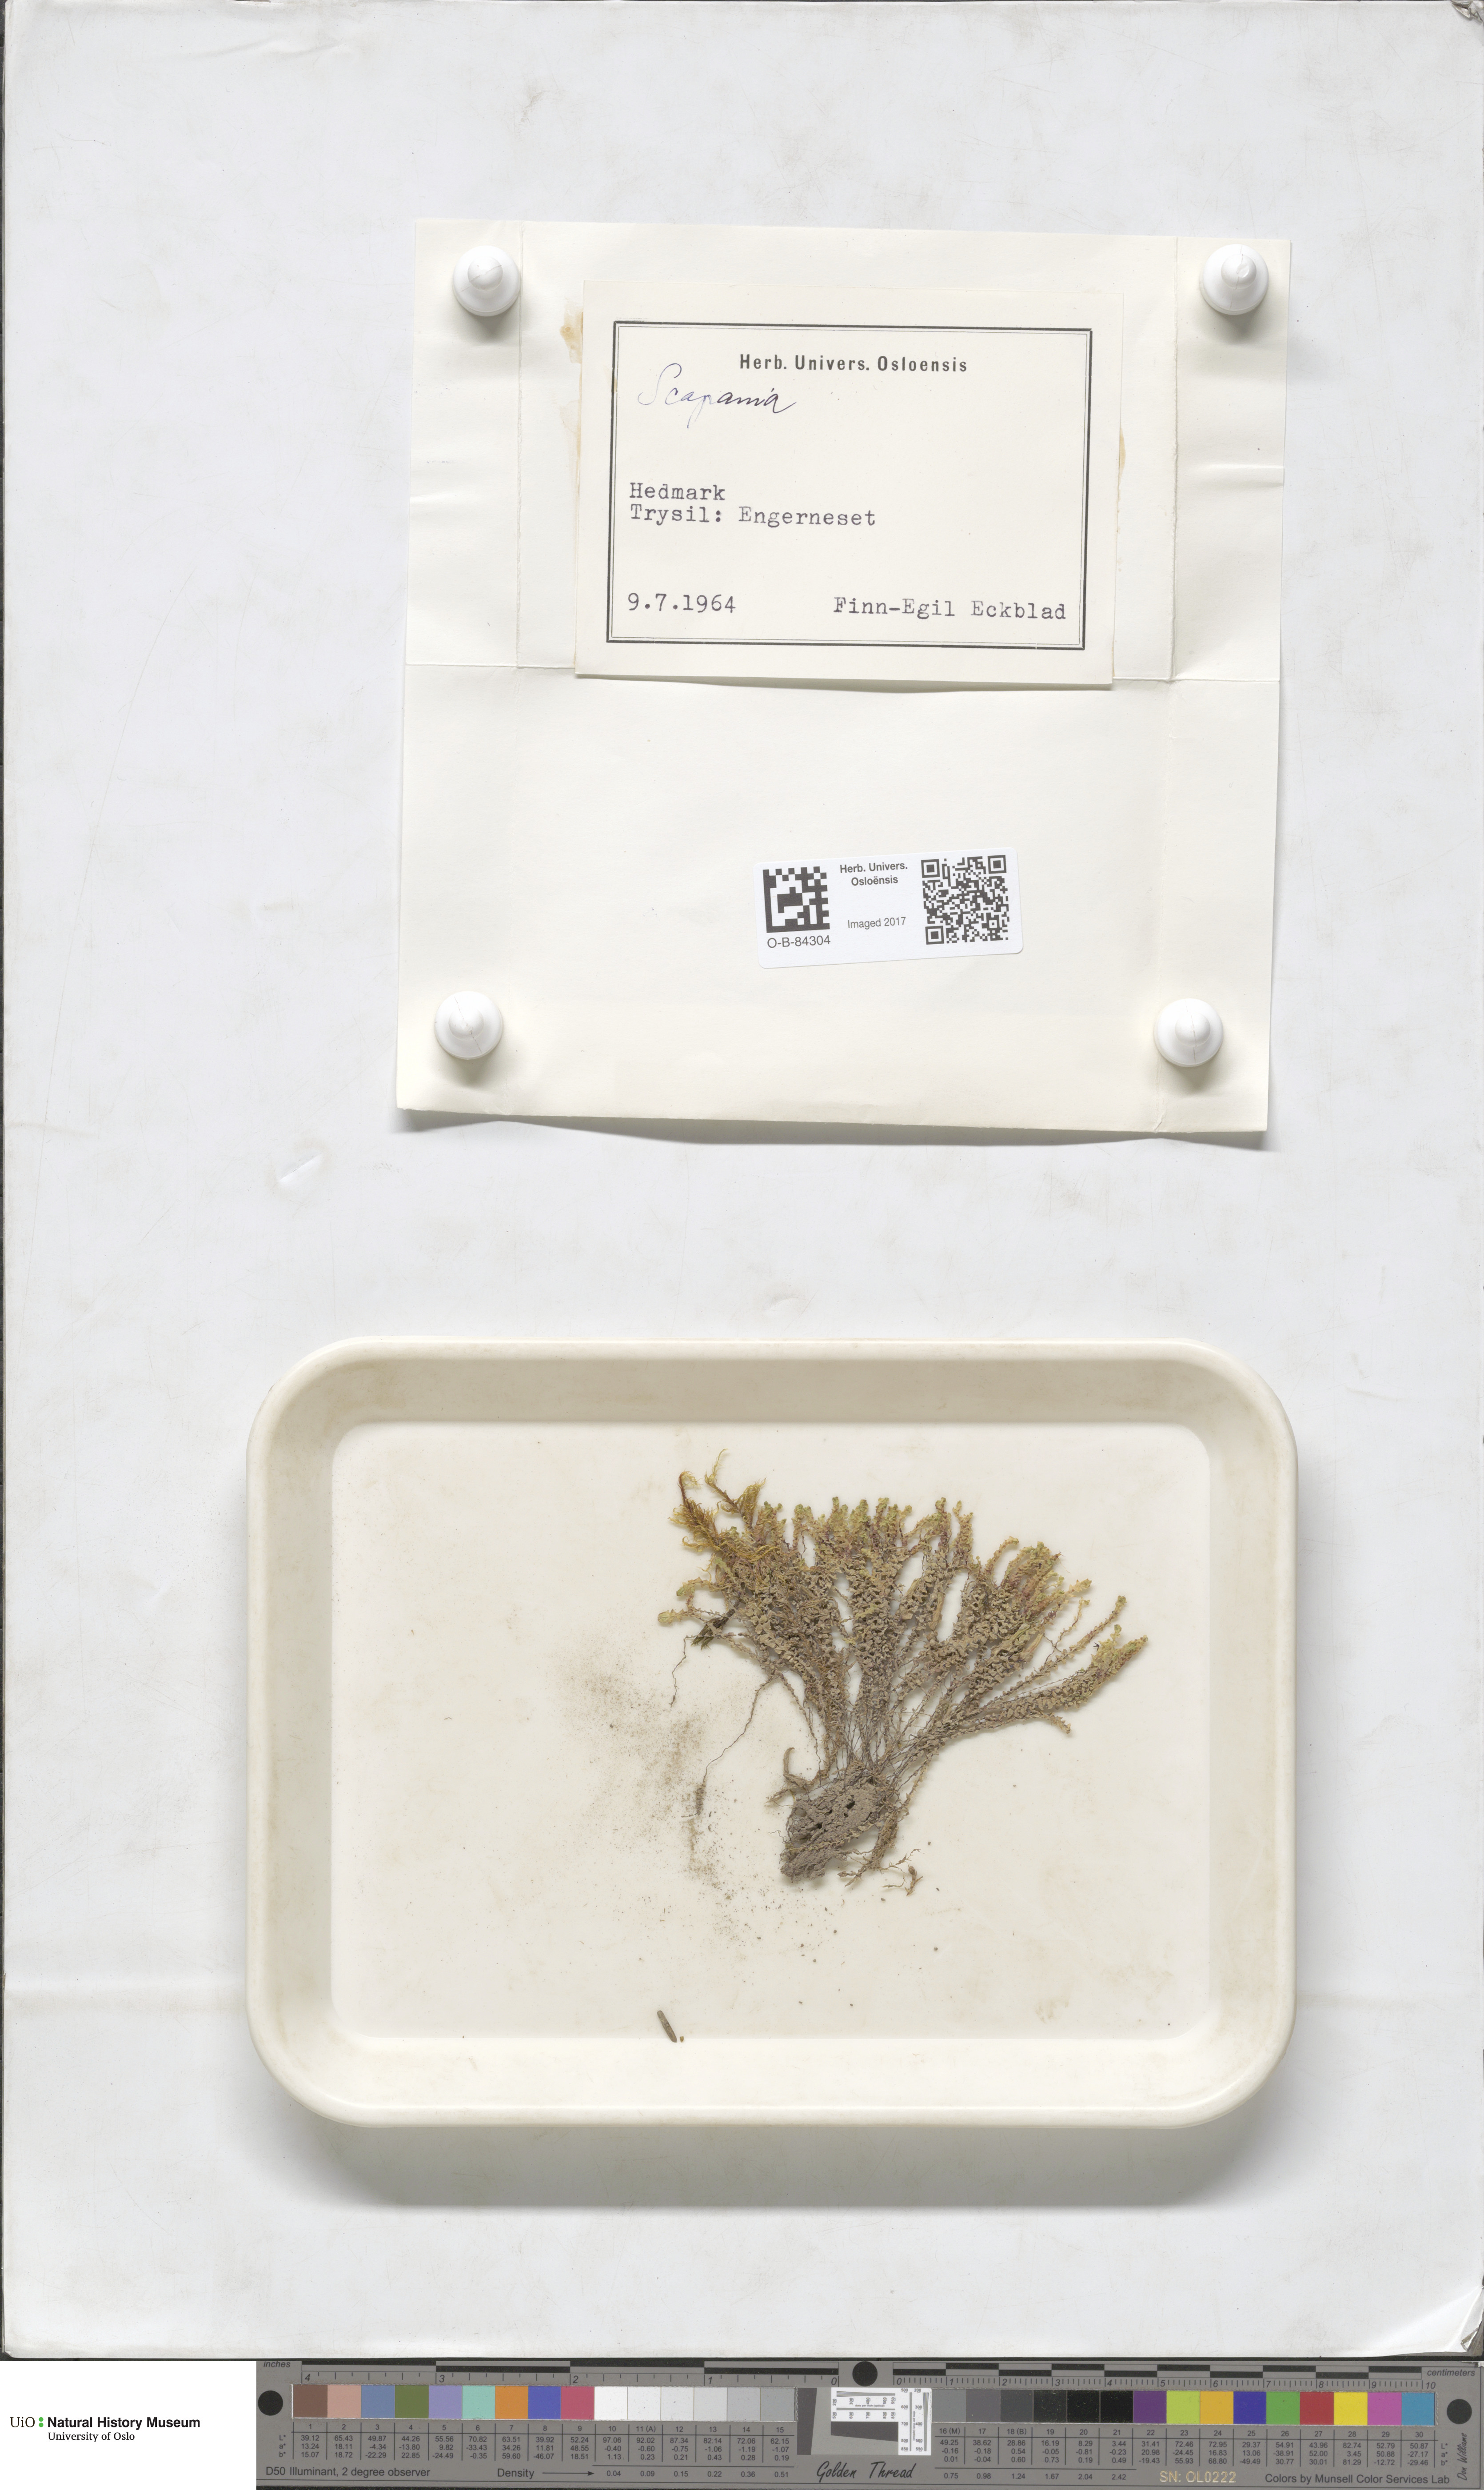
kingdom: Plantae
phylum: Marchantiophyta
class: Jungermanniopsida
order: Jungermanniales
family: Scapaniaceae
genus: Scapania
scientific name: Scapania
